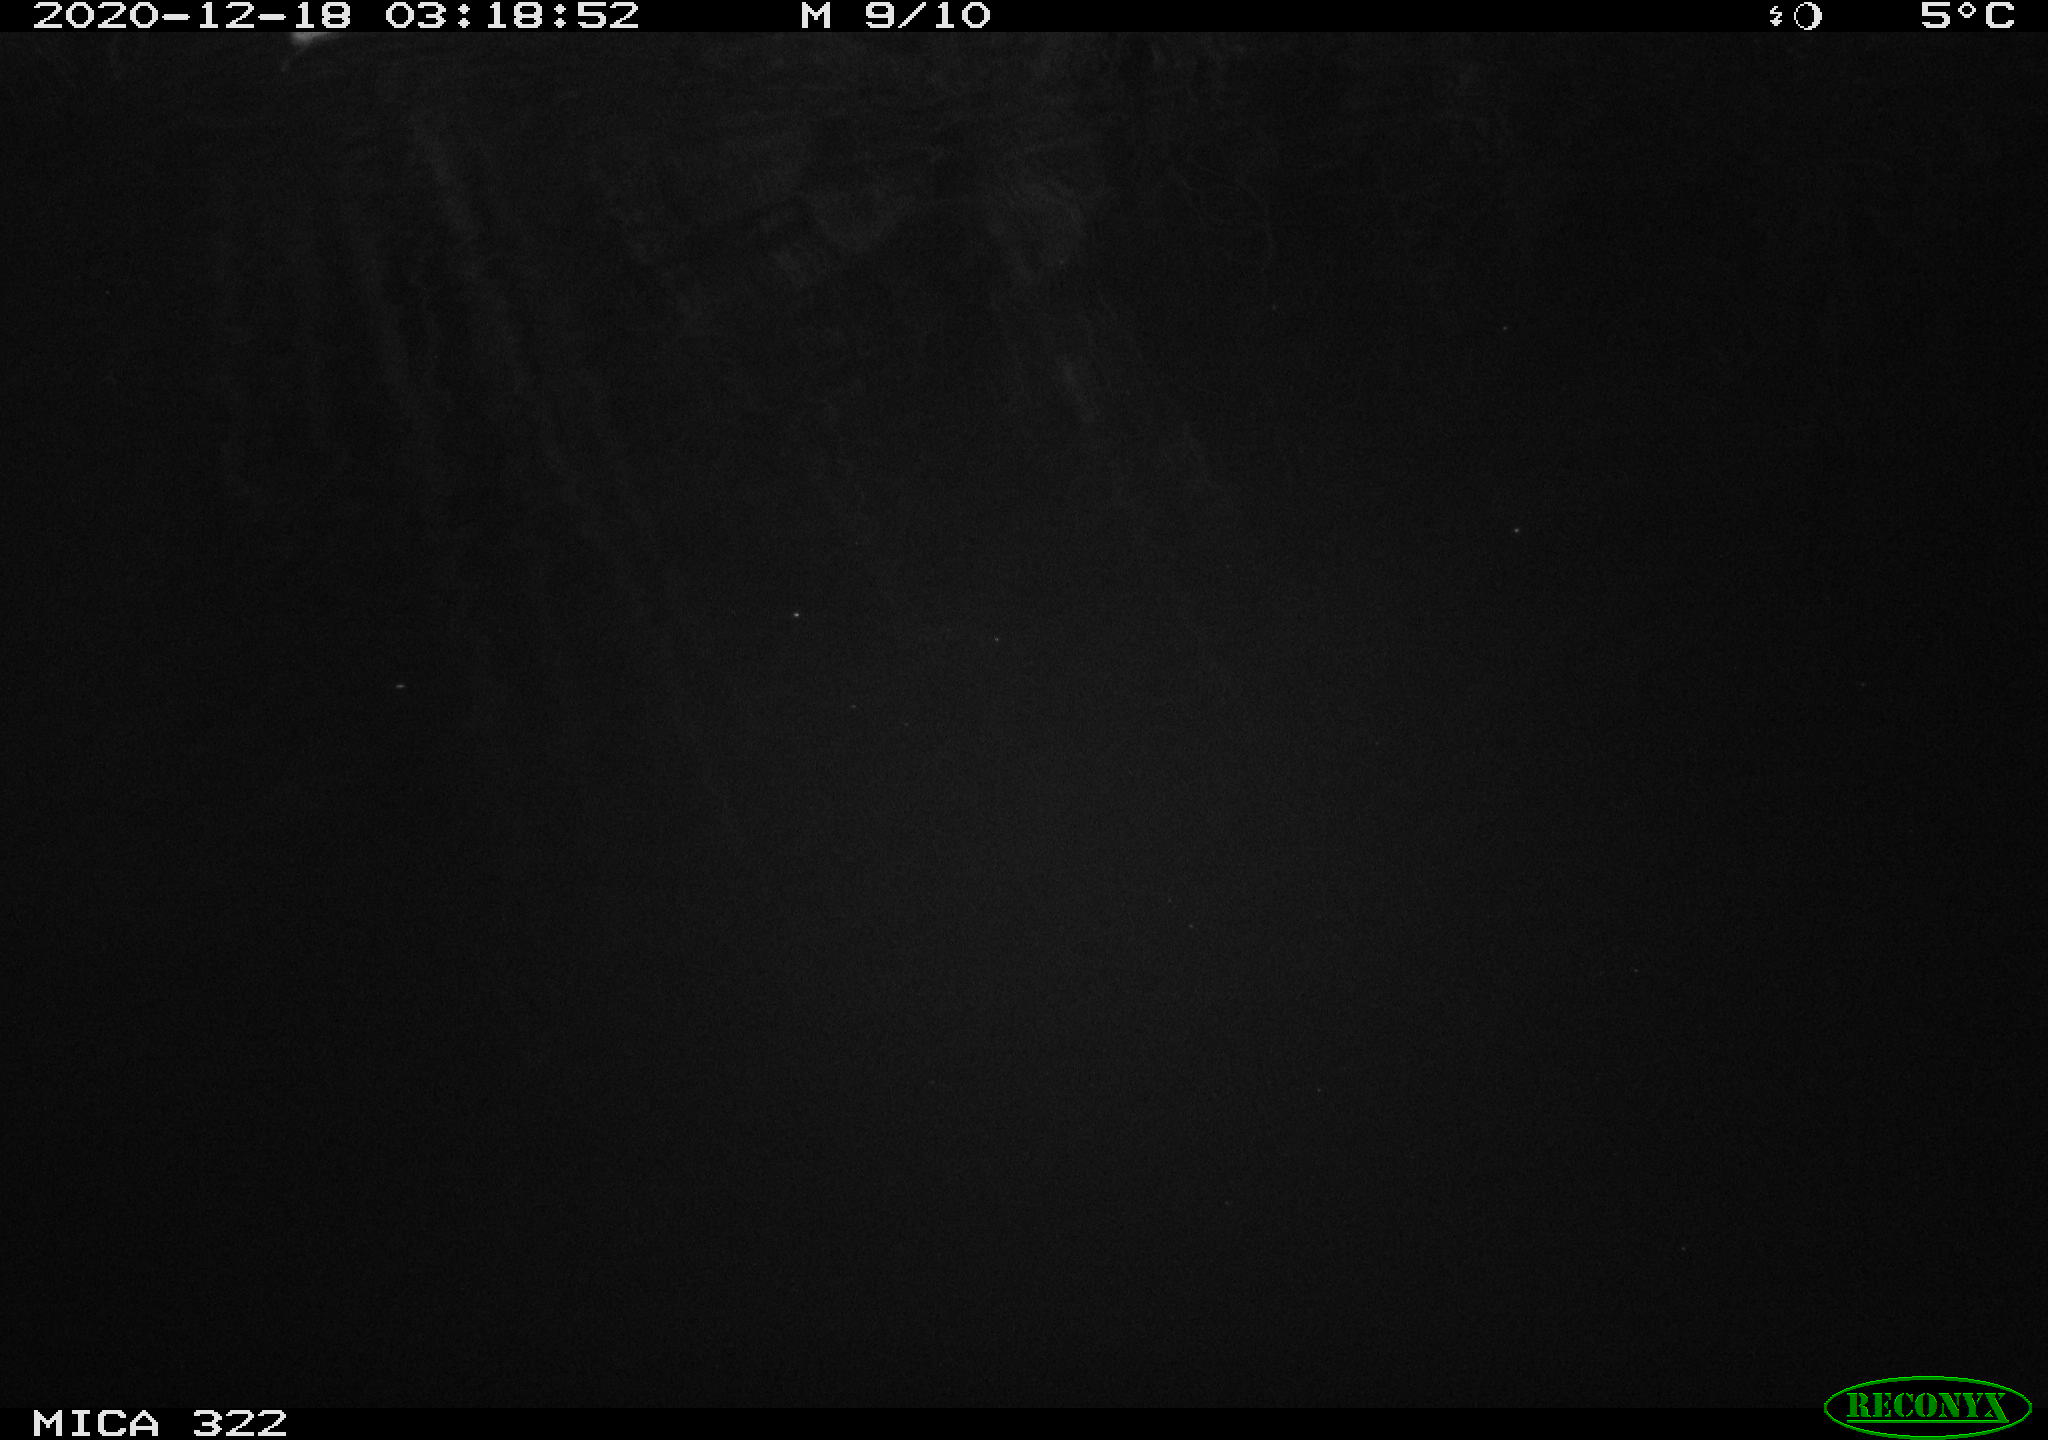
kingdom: Animalia
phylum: Chordata
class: Mammalia
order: Rodentia
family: Muridae
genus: Rattus
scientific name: Rattus norvegicus
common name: Brown rat
